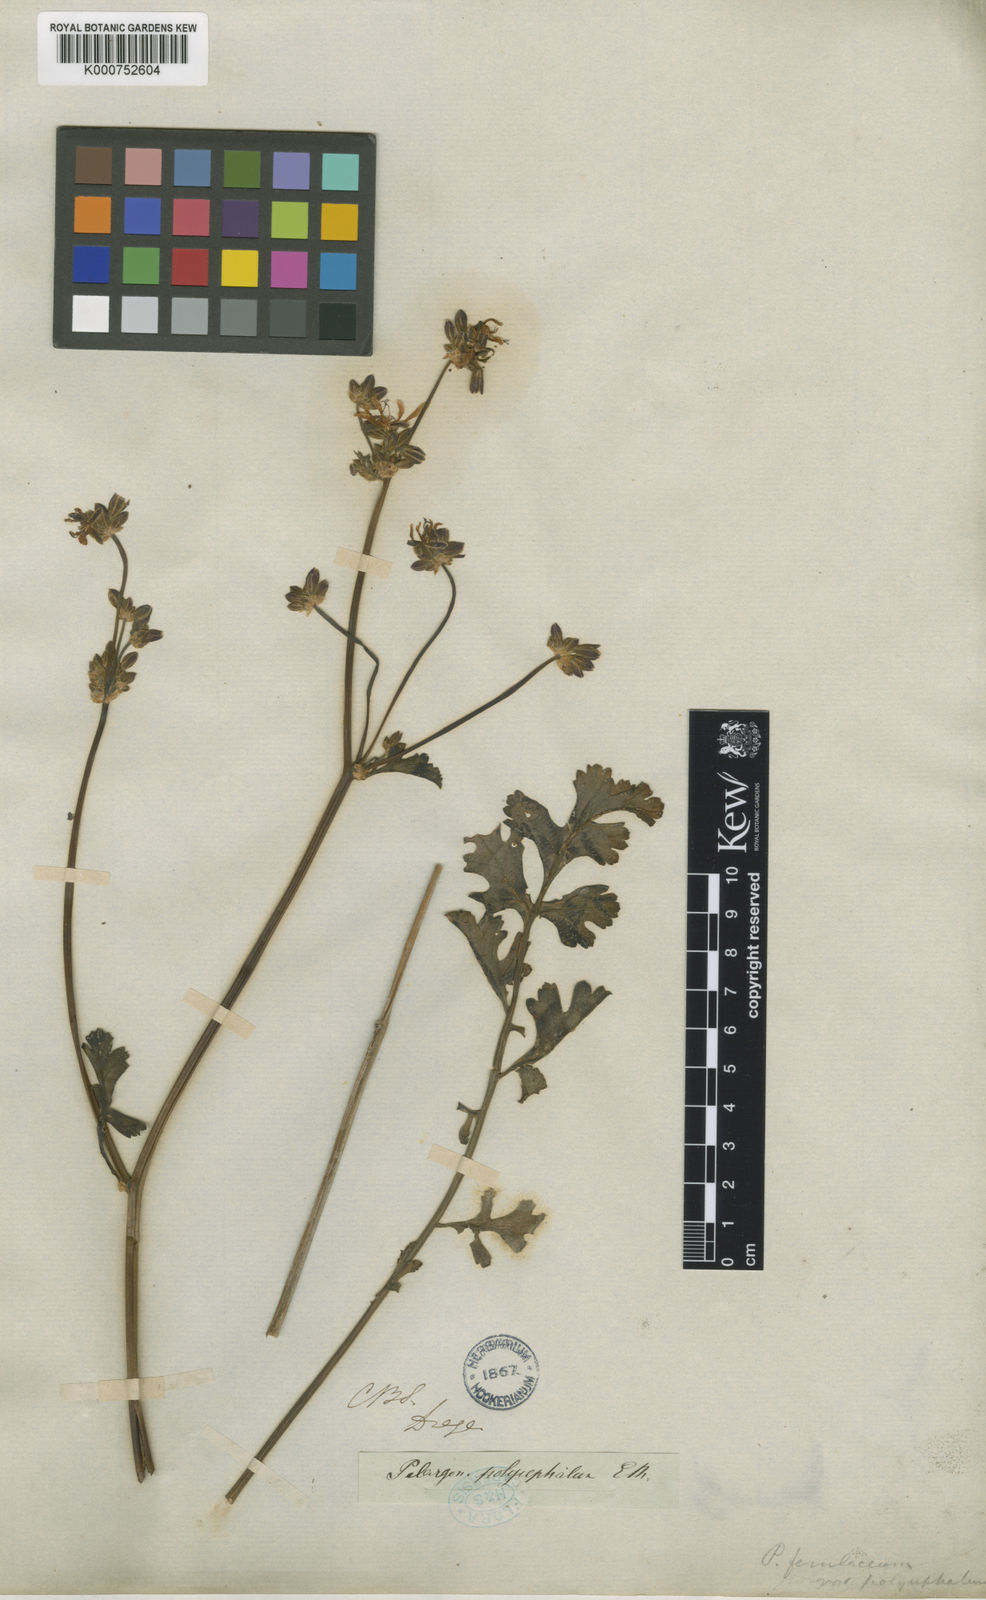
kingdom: Plantae
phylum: Tracheophyta
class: Magnoliopsida
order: Geraniales
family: Geraniaceae
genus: Pelargonium
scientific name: Pelargonium
